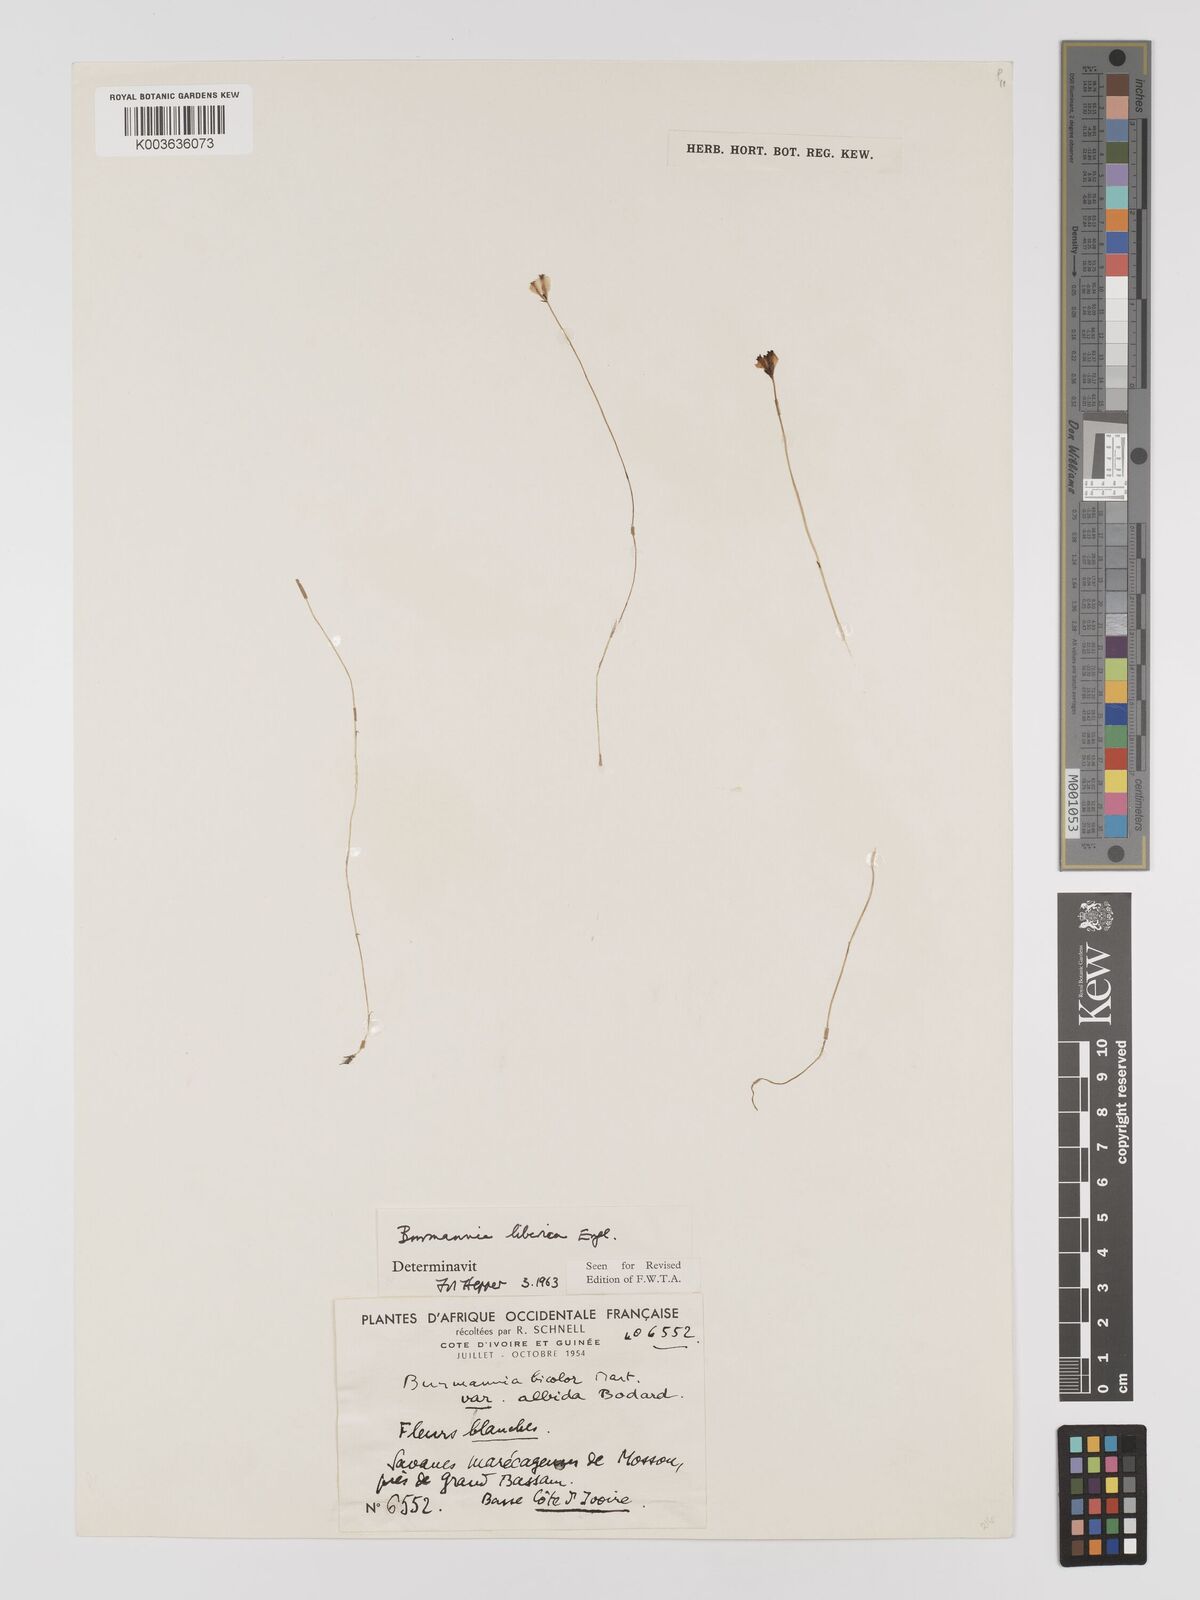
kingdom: Plantae
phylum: Tracheophyta
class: Liliopsida
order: Dioscoreales
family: Burmanniaceae
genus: Burmannia
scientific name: Burmannia madagascariensis
